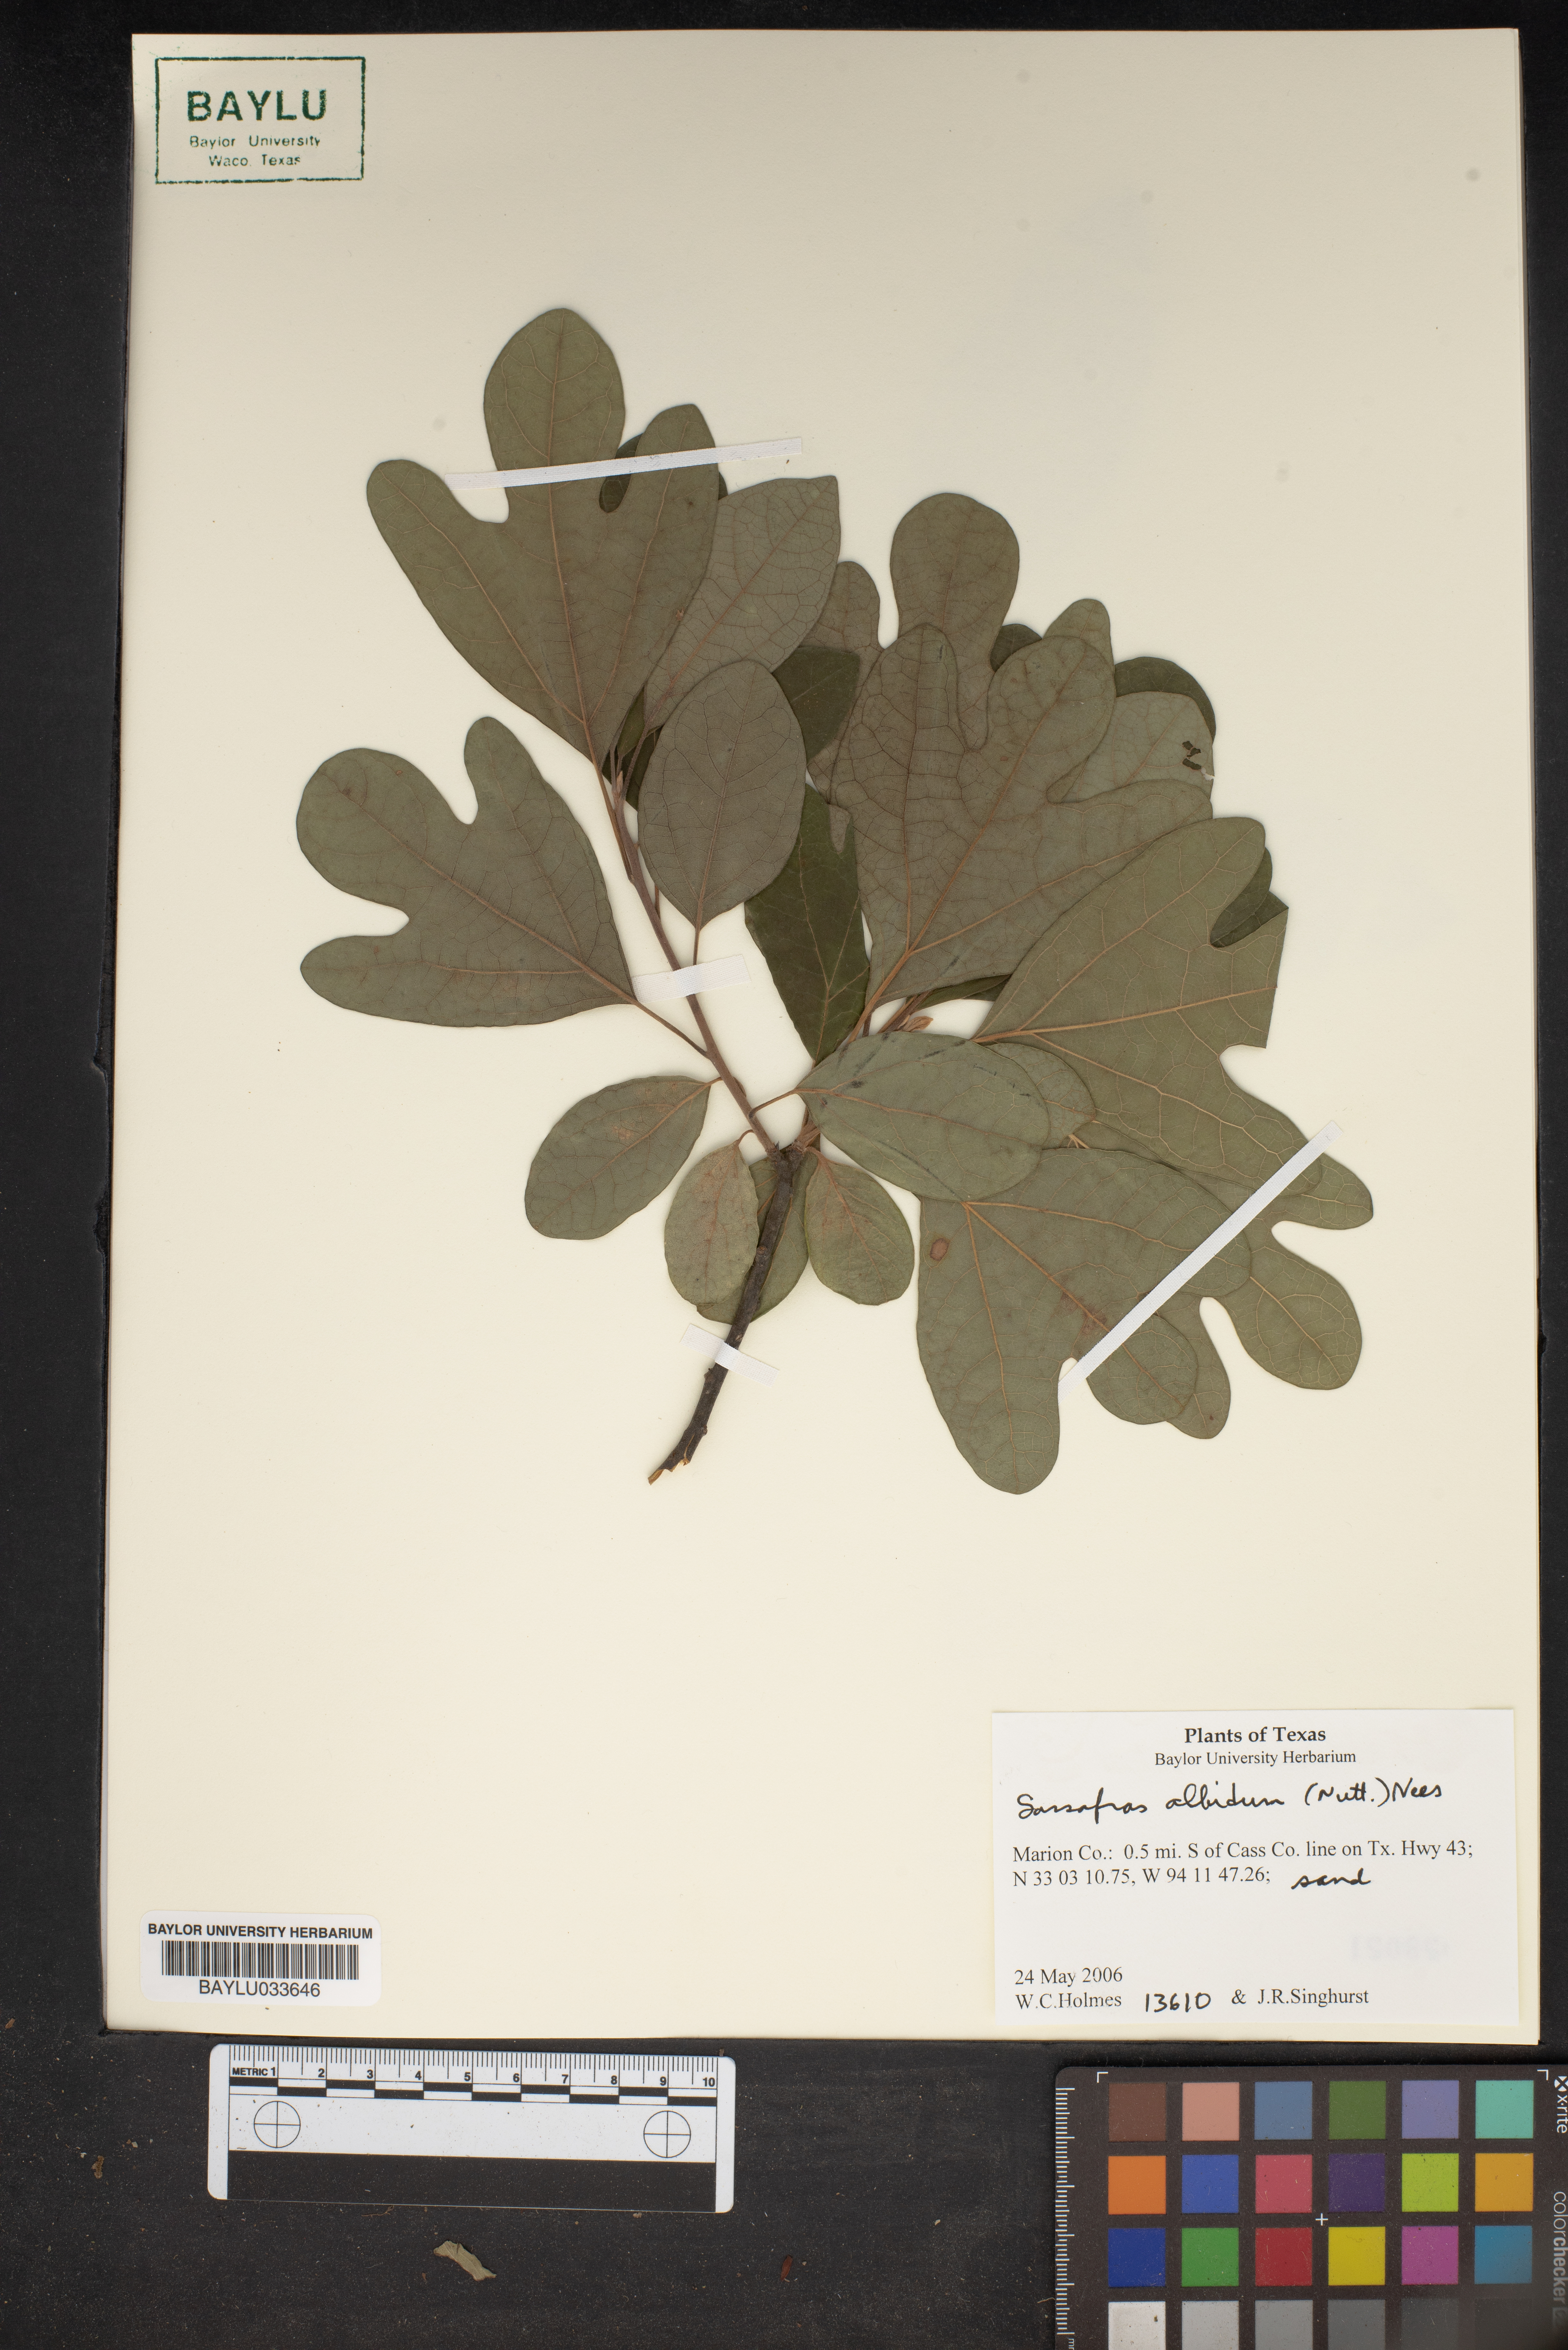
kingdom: Plantae
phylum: Tracheophyta
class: Magnoliopsida
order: Laurales
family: Lauraceae
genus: Sassafras
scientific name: Sassafras albidum
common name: Sassafras
